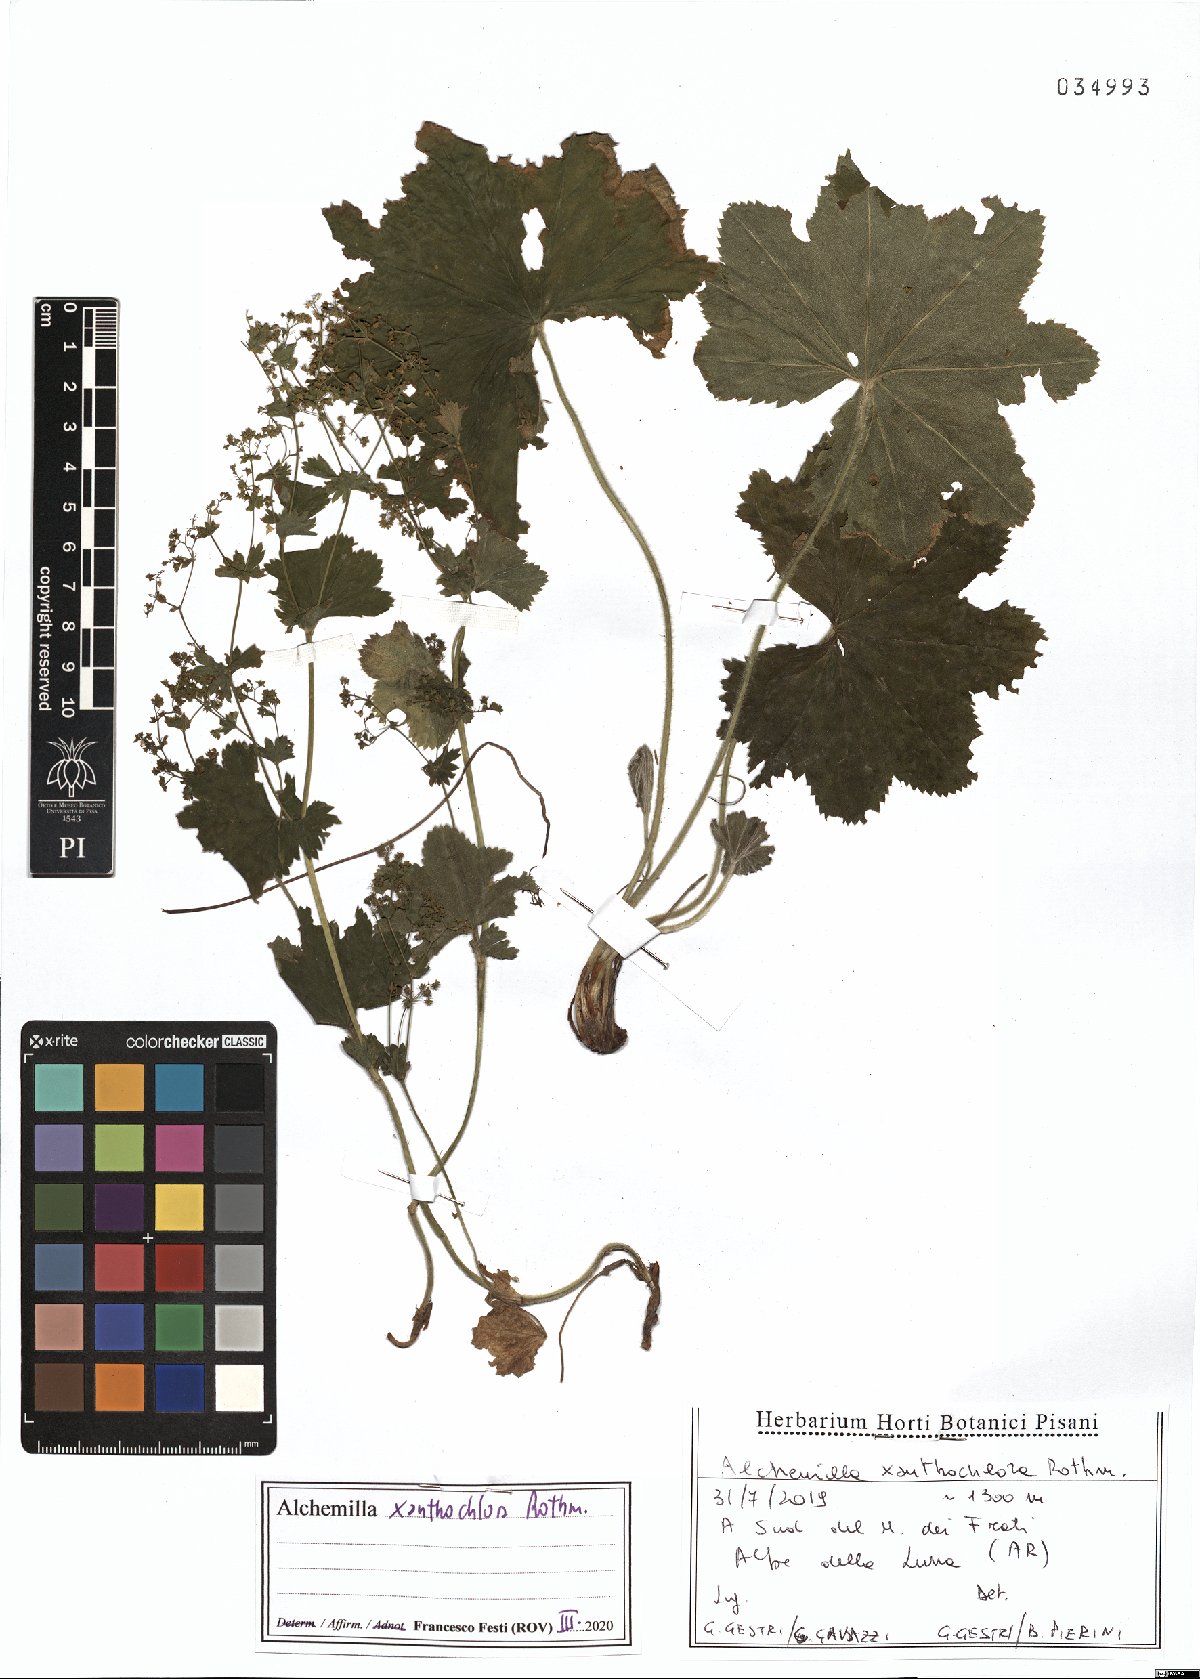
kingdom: Plantae
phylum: Tracheophyta
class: Magnoliopsida
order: Rosales
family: Rosaceae
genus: Alchemilla
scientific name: Alchemilla xanthochlora
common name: Intermediate lady's-mantle
